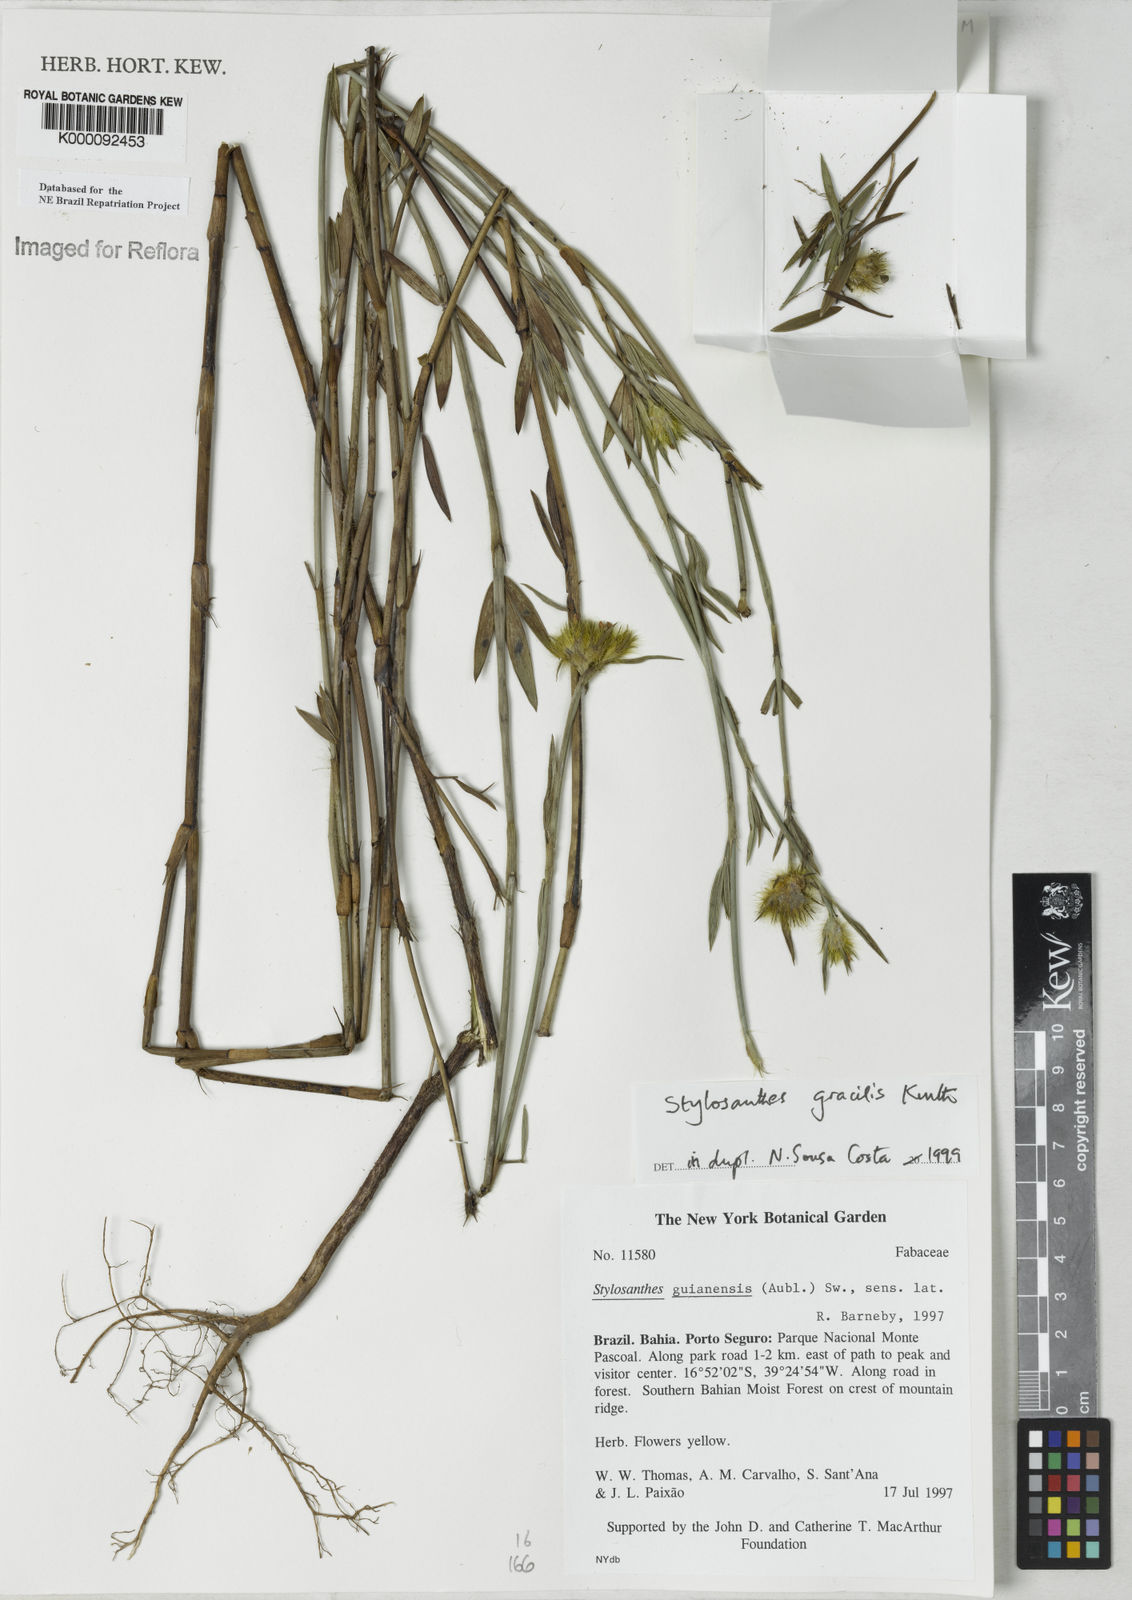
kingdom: Plantae
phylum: Tracheophyta
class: Magnoliopsida
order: Fabales
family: Fabaceae
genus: Stylosanthes
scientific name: Stylosanthes guianensis
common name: Pencil flower
